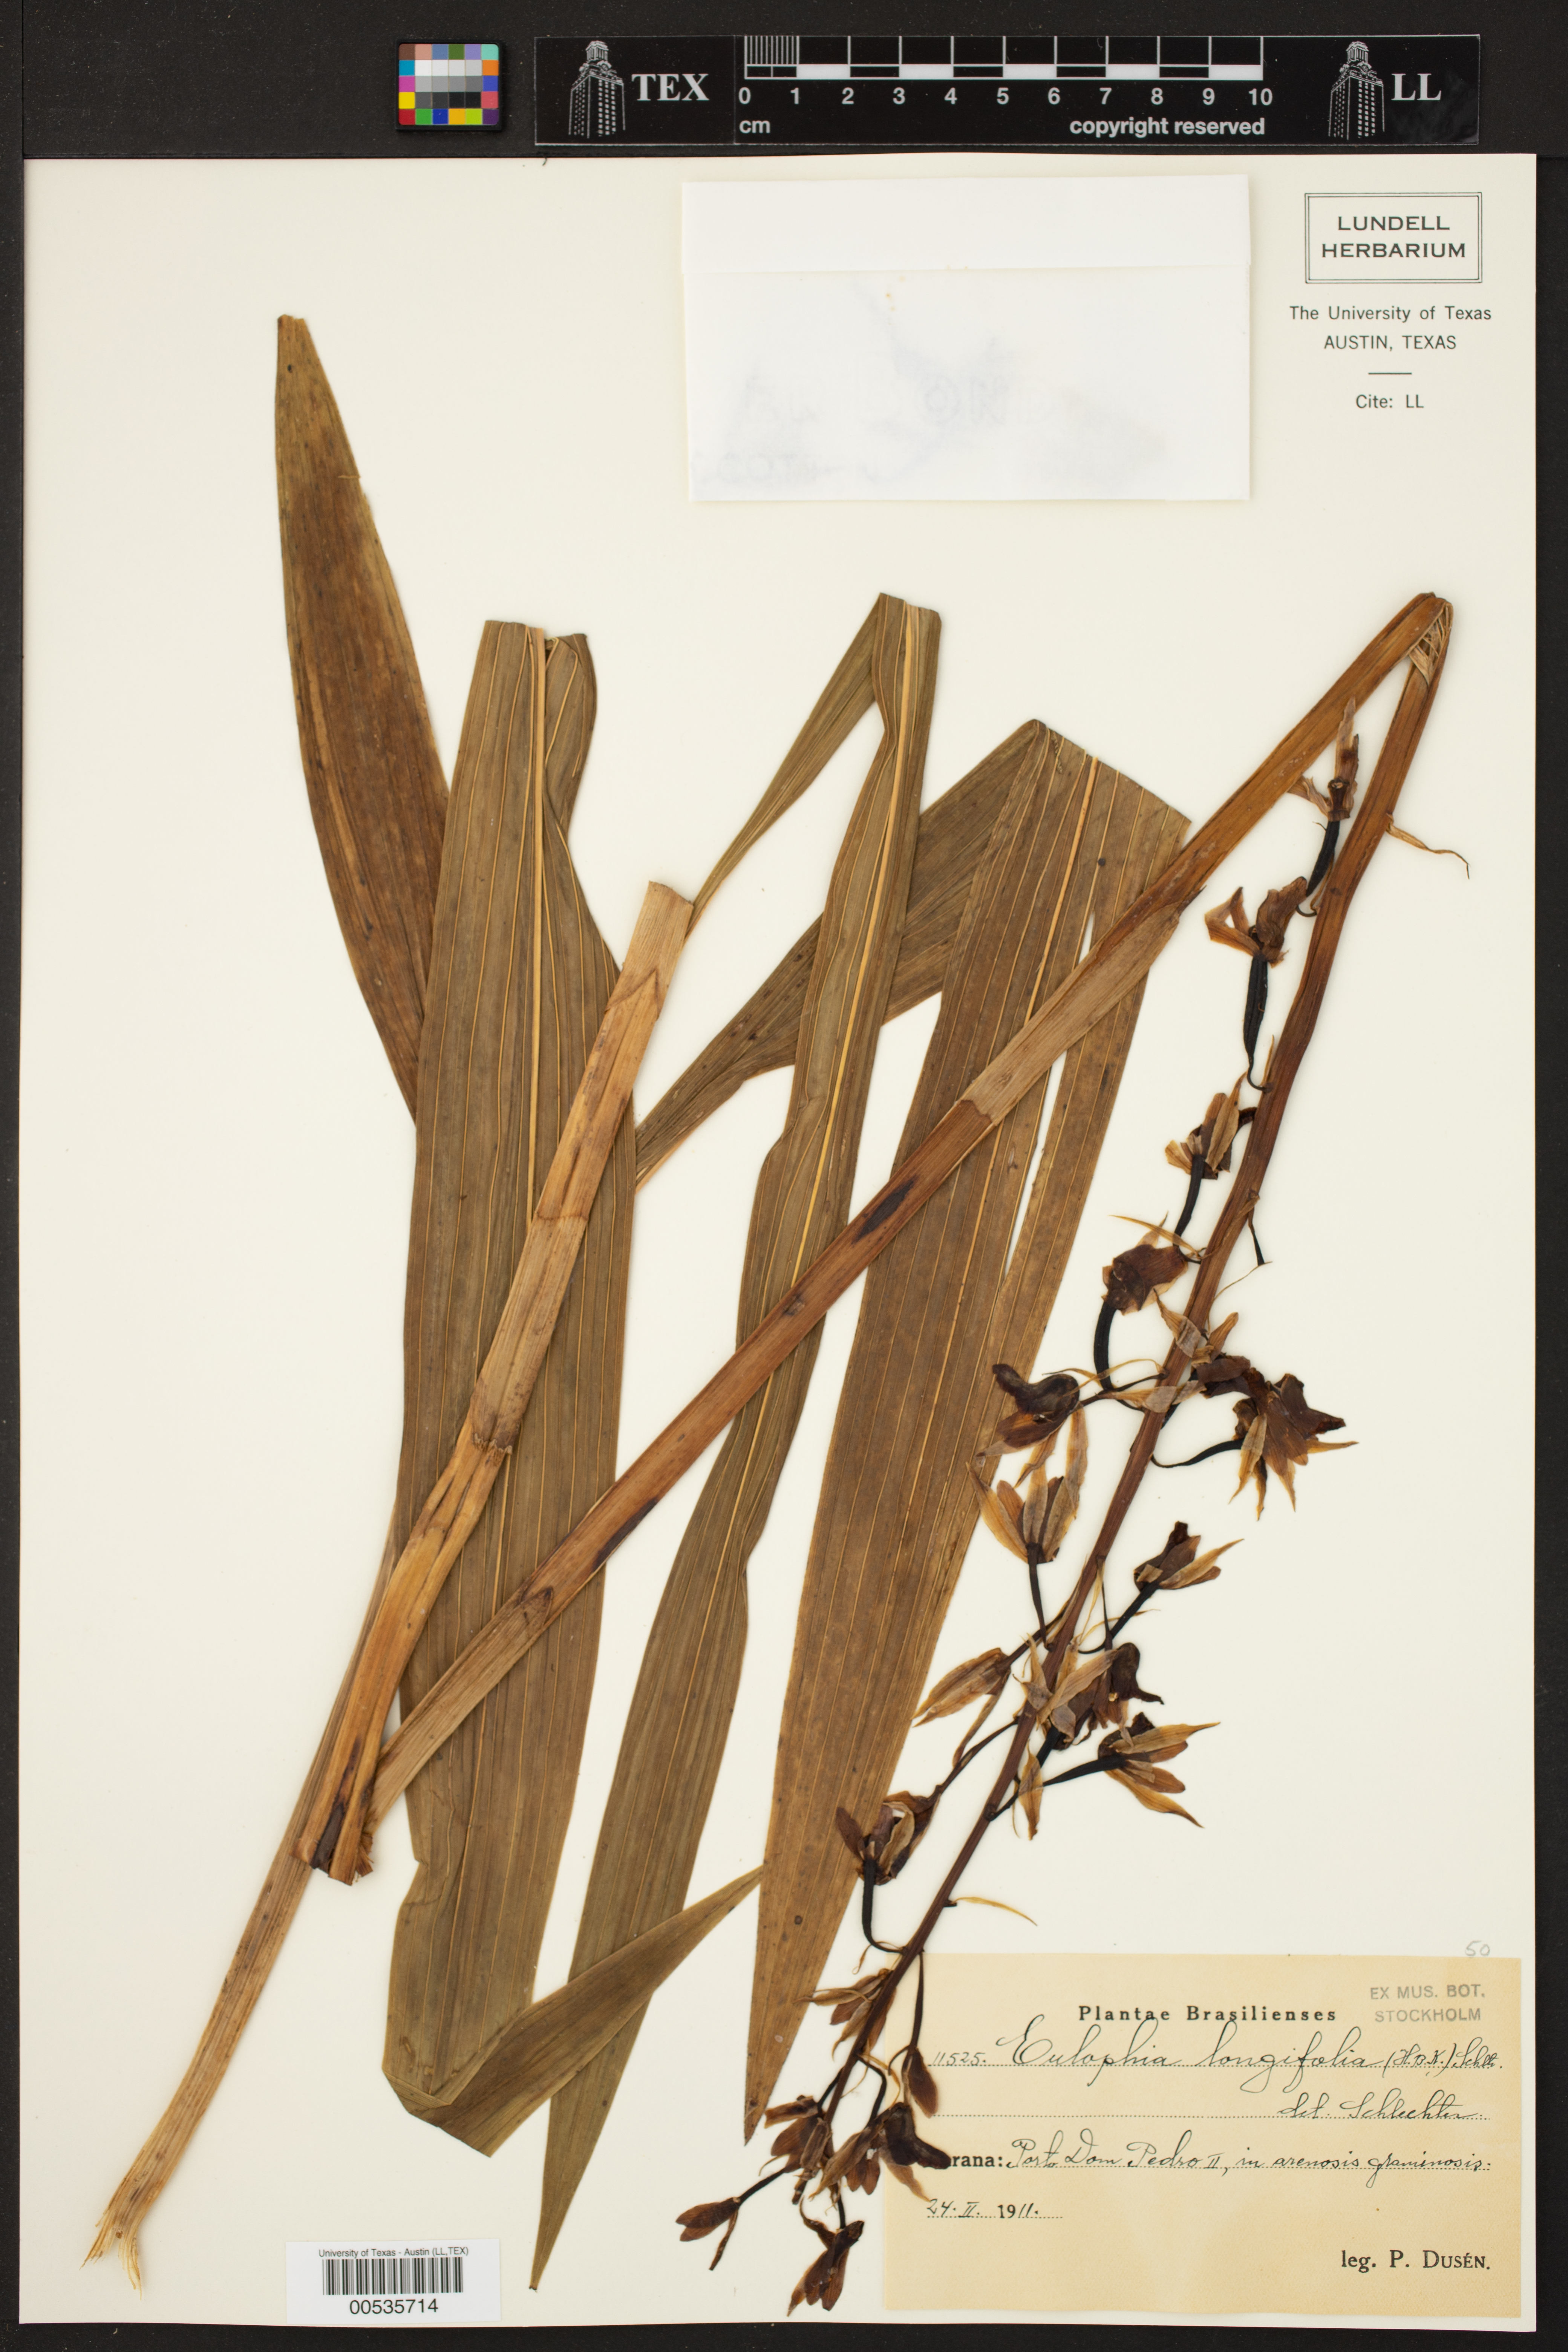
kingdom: Plantae
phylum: Tracheophyta
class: Liliopsida
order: Asparagales
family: Orchidaceae
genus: Eulophia
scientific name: Eulophia alta
